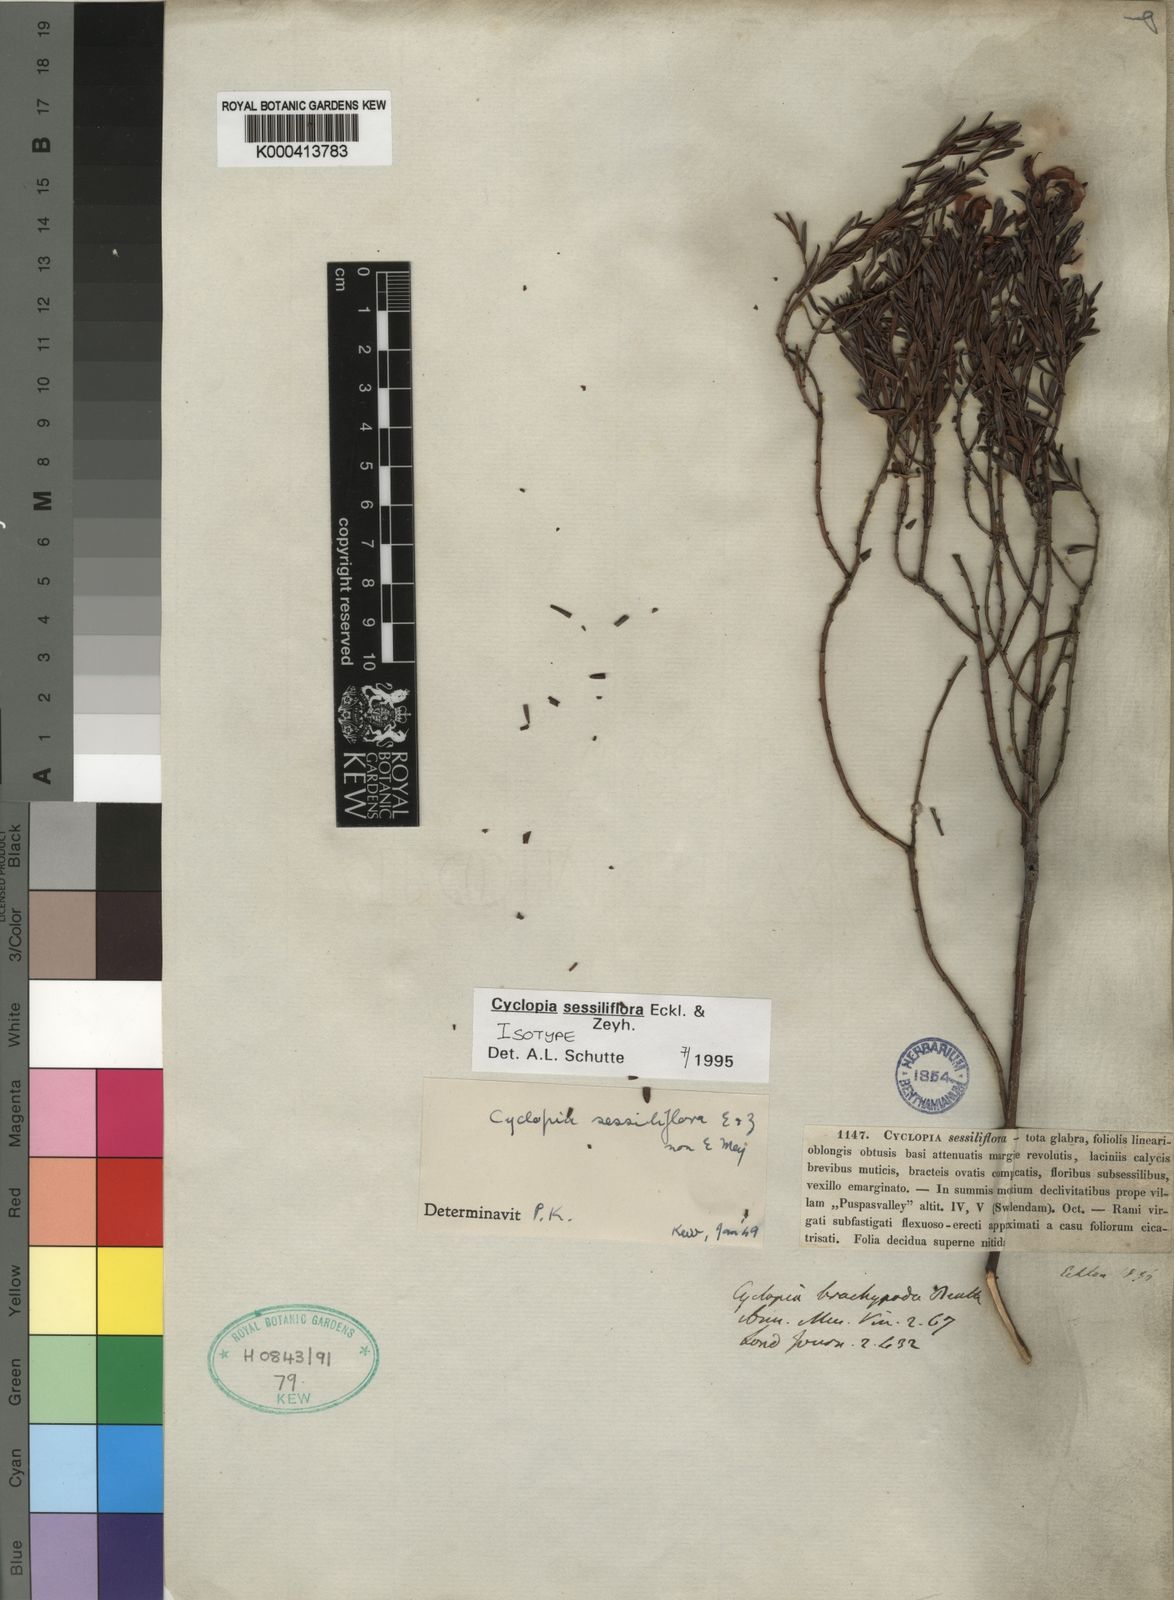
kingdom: Plantae
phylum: Tracheophyta
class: Magnoliopsida
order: Fabales
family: Fabaceae
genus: Cyclopia
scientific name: Cyclopia sessiliflora
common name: Heidelberg tea
